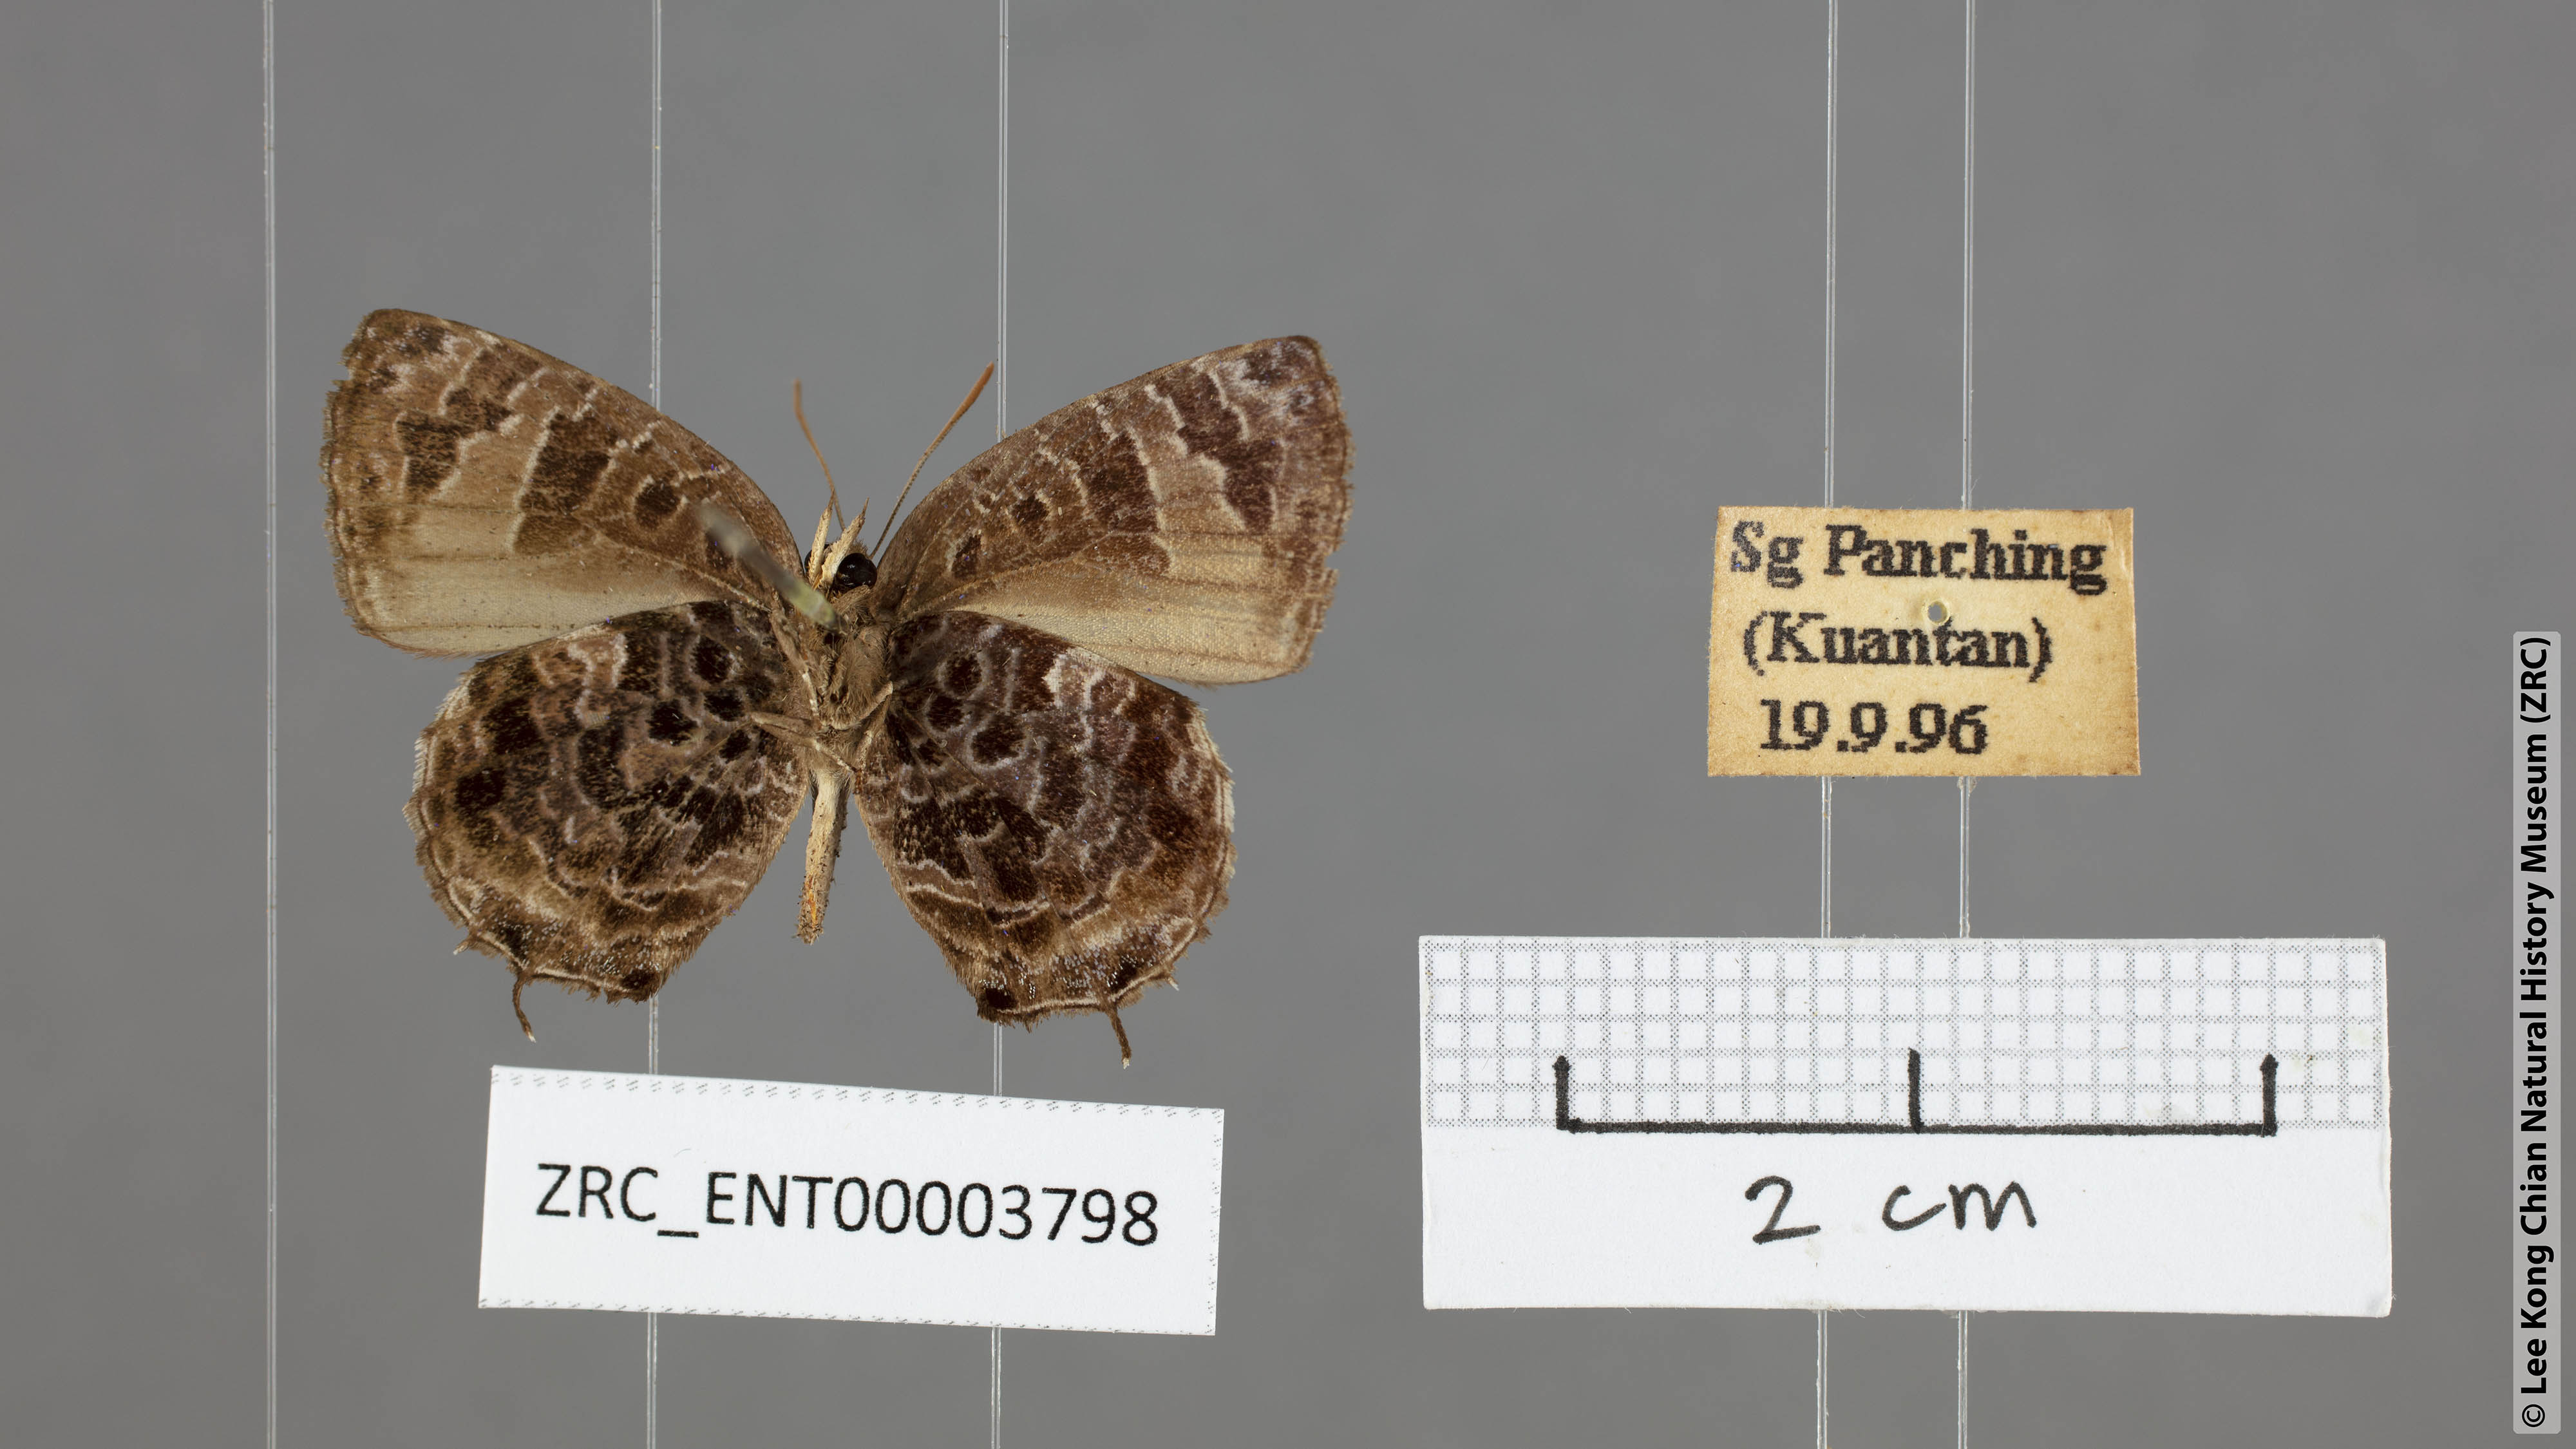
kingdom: Animalia
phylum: Arthropoda
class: Insecta
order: Lepidoptera
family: Lycaenidae
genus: Arhopala
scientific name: Arhopala abseus
